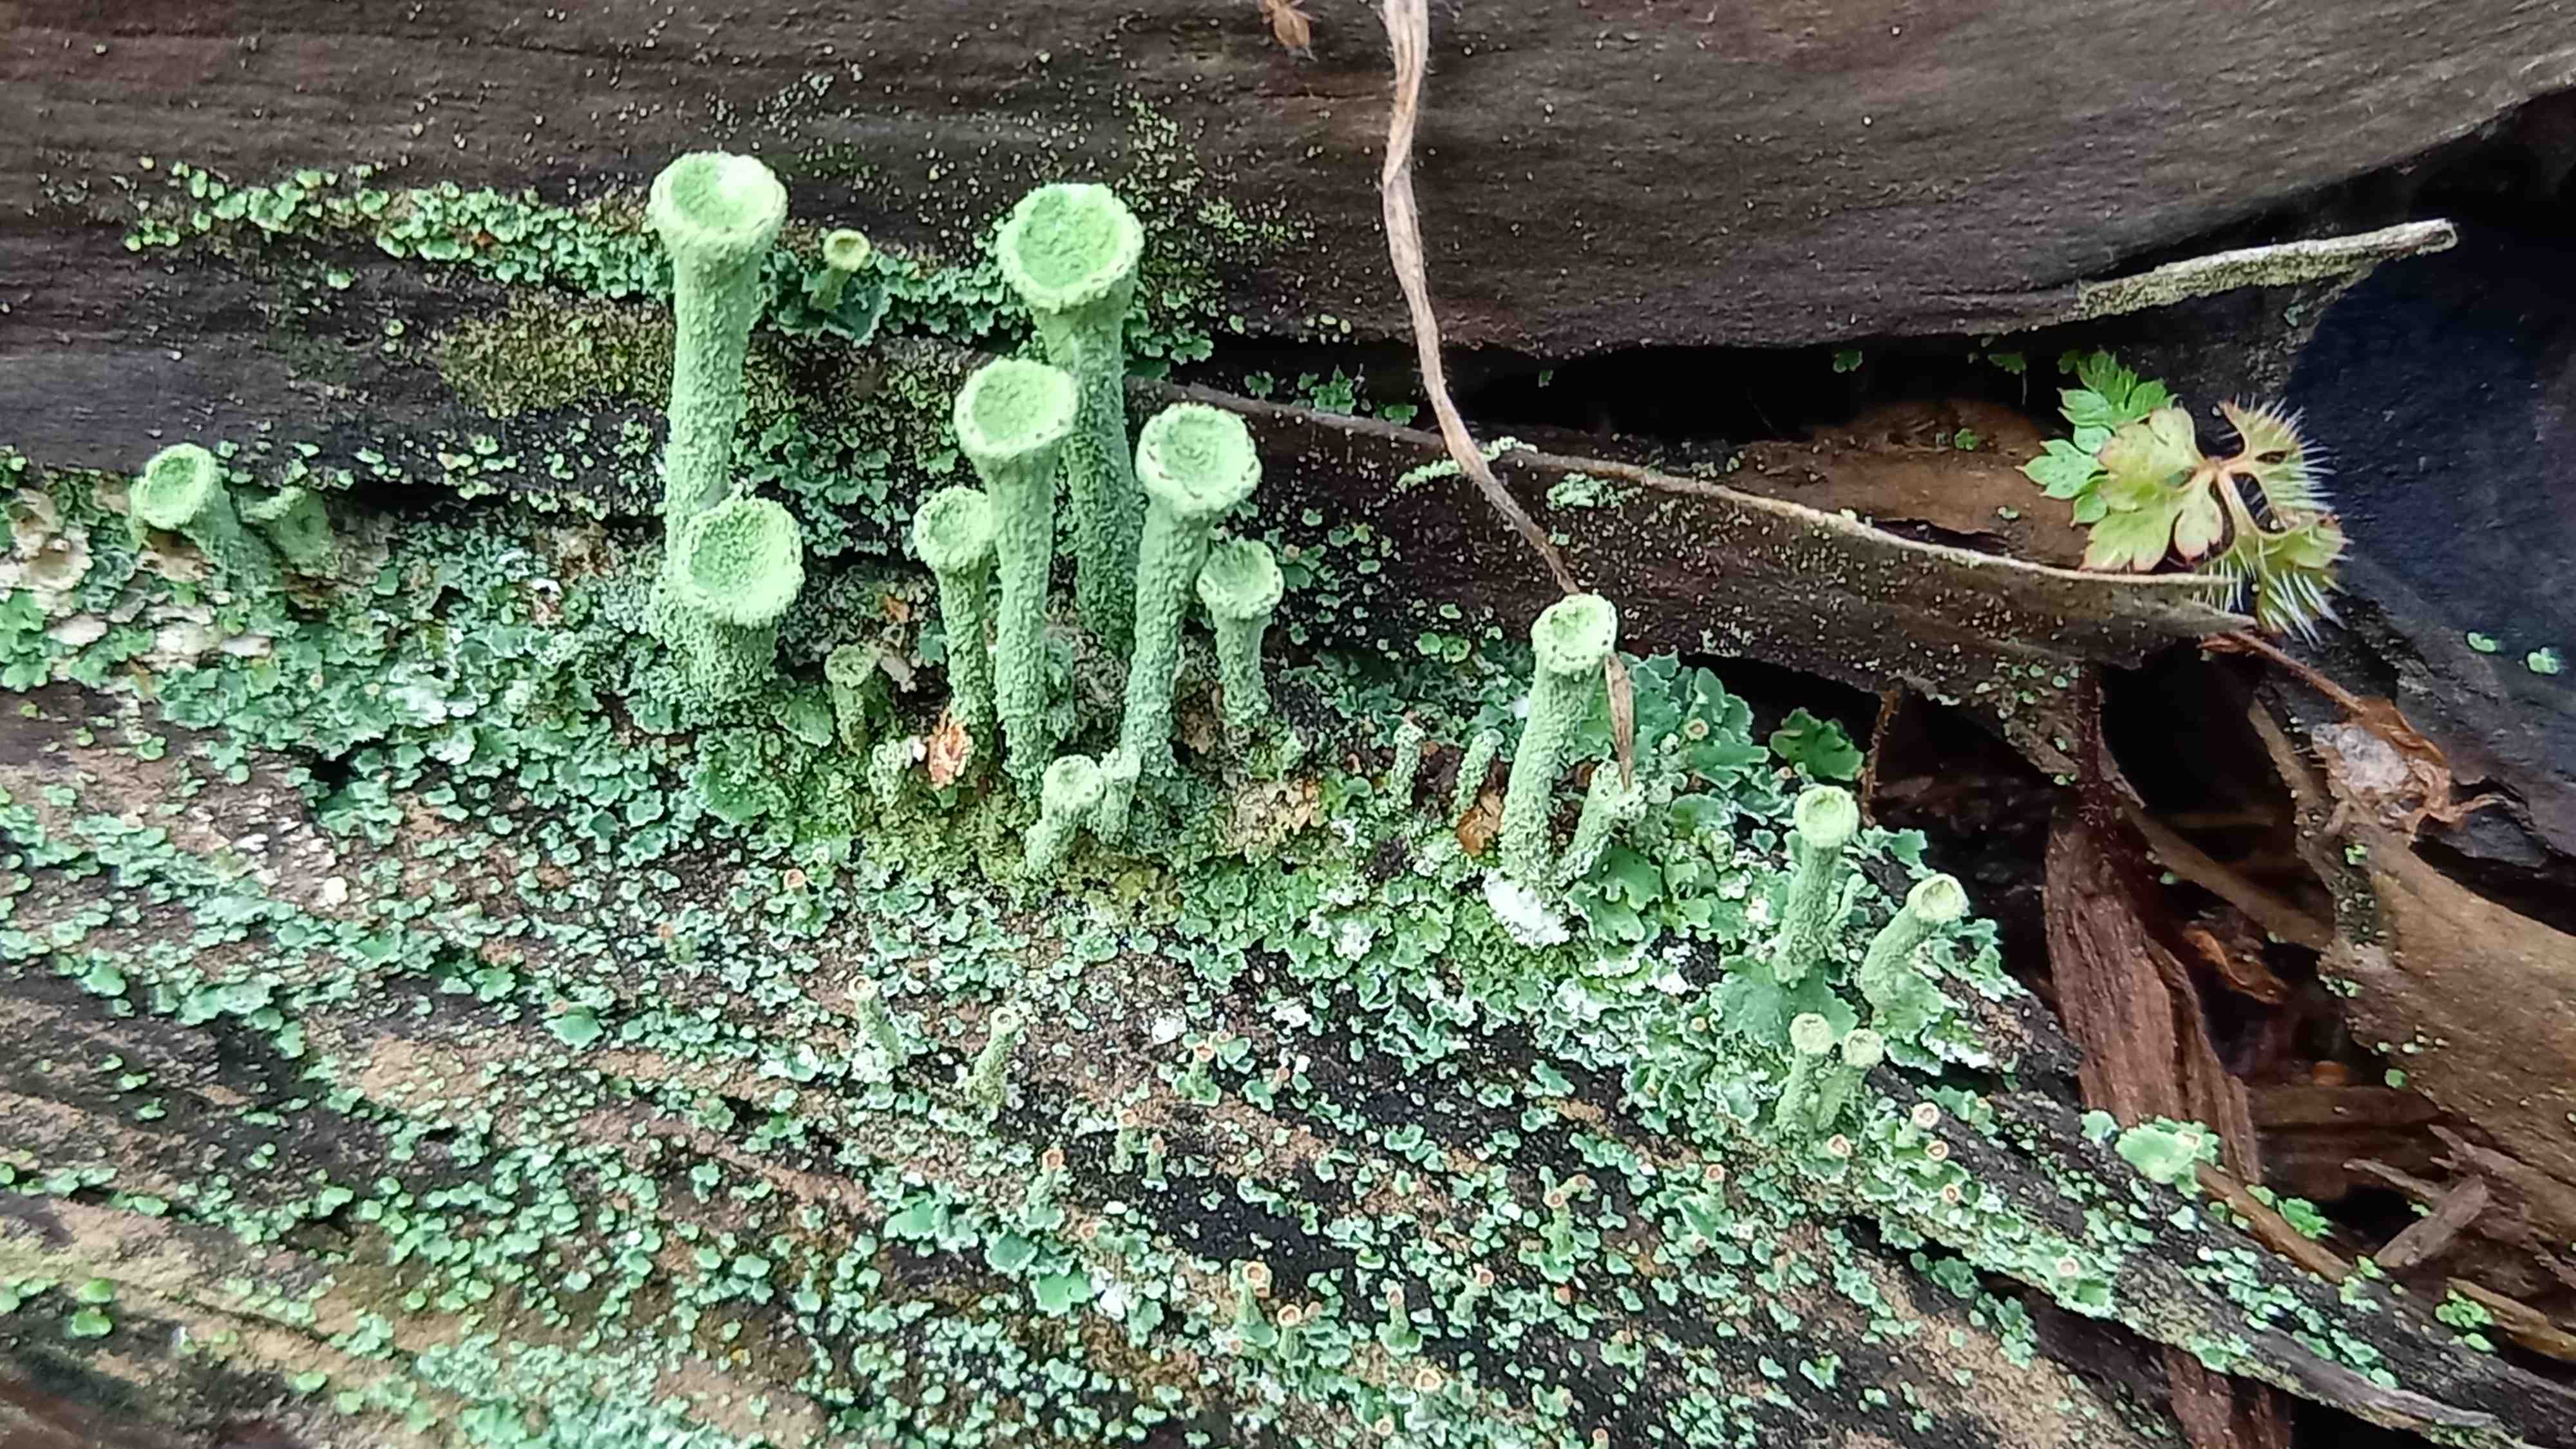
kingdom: Fungi
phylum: Ascomycota
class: Lecanoromycetes
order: Lecanorales
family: Cladoniaceae
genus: Cladonia
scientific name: Cladonia fimbriata
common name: bleggrøn bægerlav
